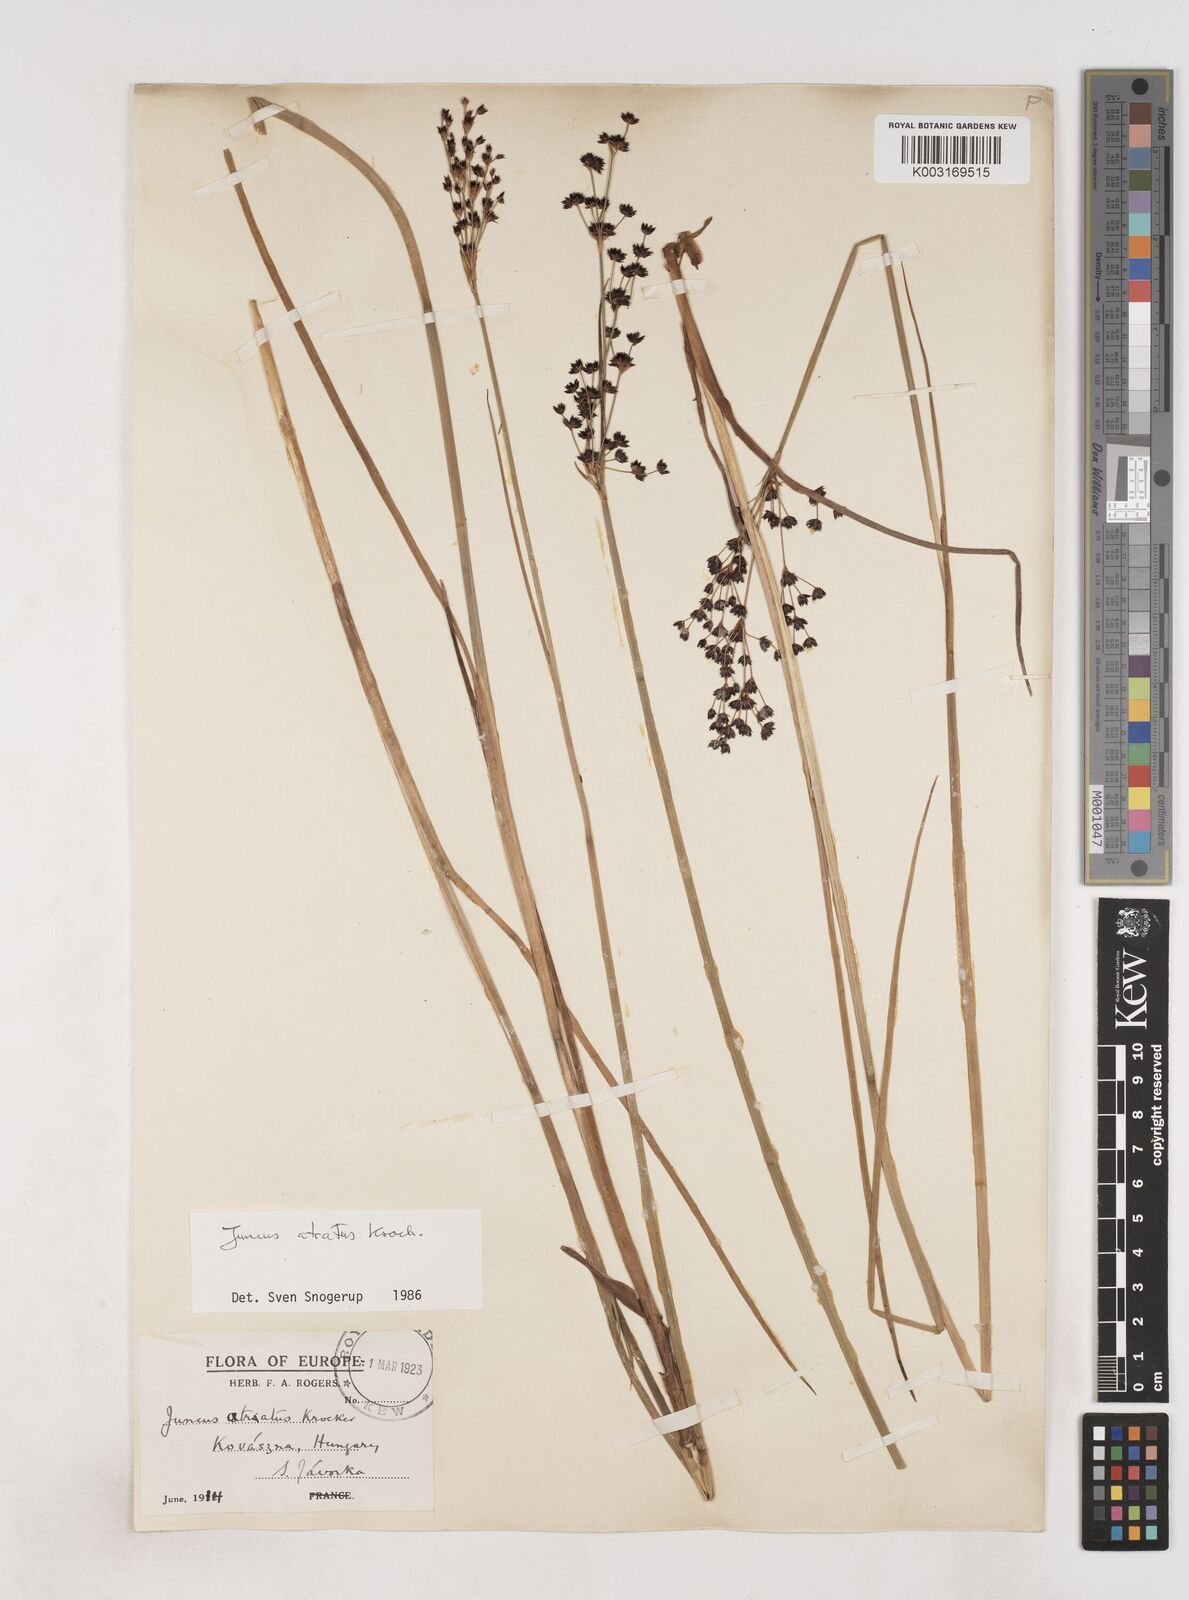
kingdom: Plantae
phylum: Tracheophyta
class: Liliopsida
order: Poales
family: Juncaceae
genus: Juncus
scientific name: Juncus atratus
